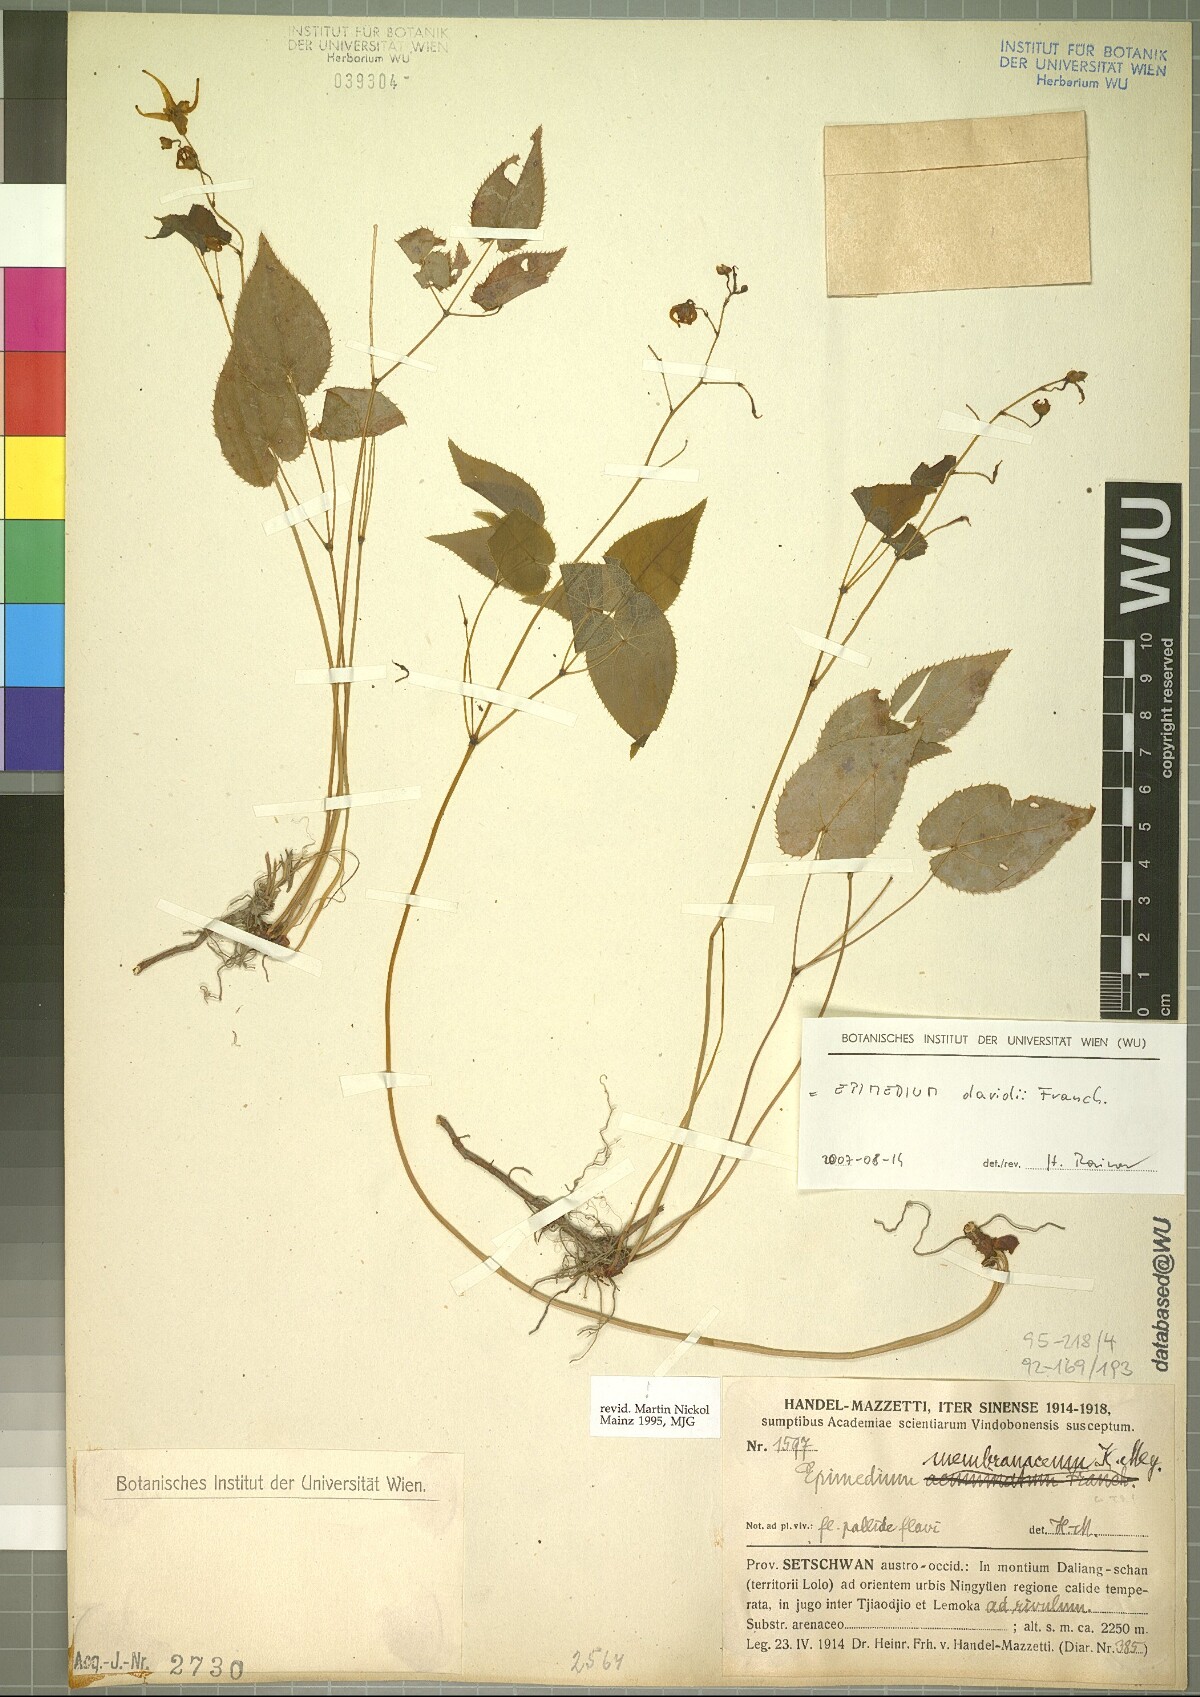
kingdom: Plantae
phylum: Tracheophyta
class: Magnoliopsida
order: Ranunculales
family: Berberidaceae
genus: Epimedium
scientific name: Epimedium davidii
